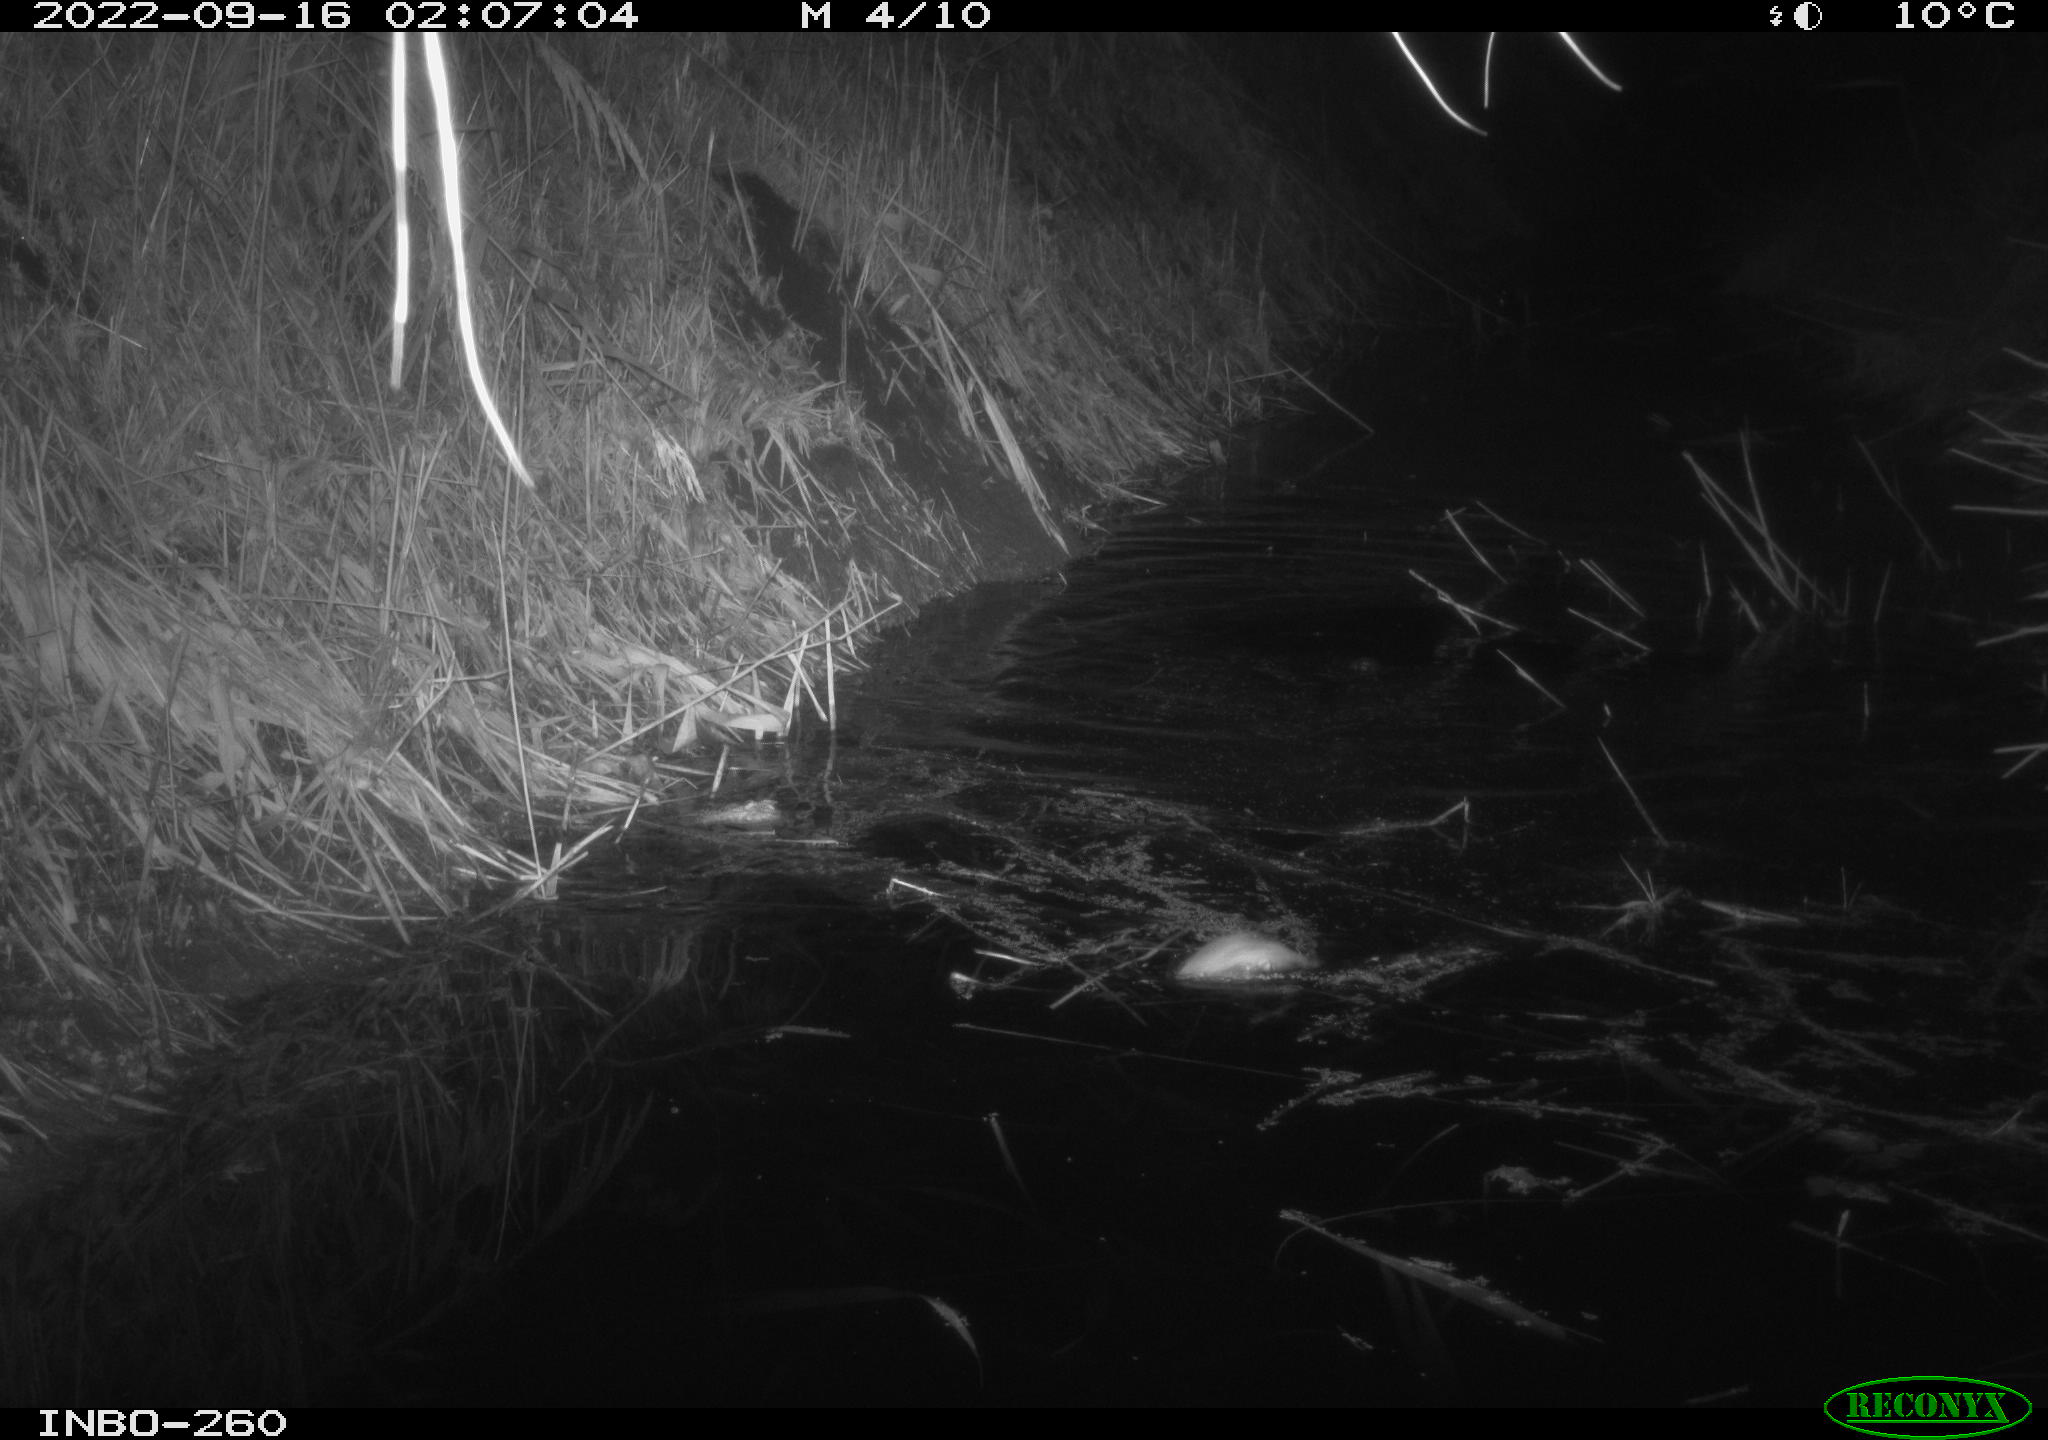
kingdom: Animalia
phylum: Chordata
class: Mammalia
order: Rodentia
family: Muridae
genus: Rattus
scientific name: Rattus norvegicus
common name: Brown rat
